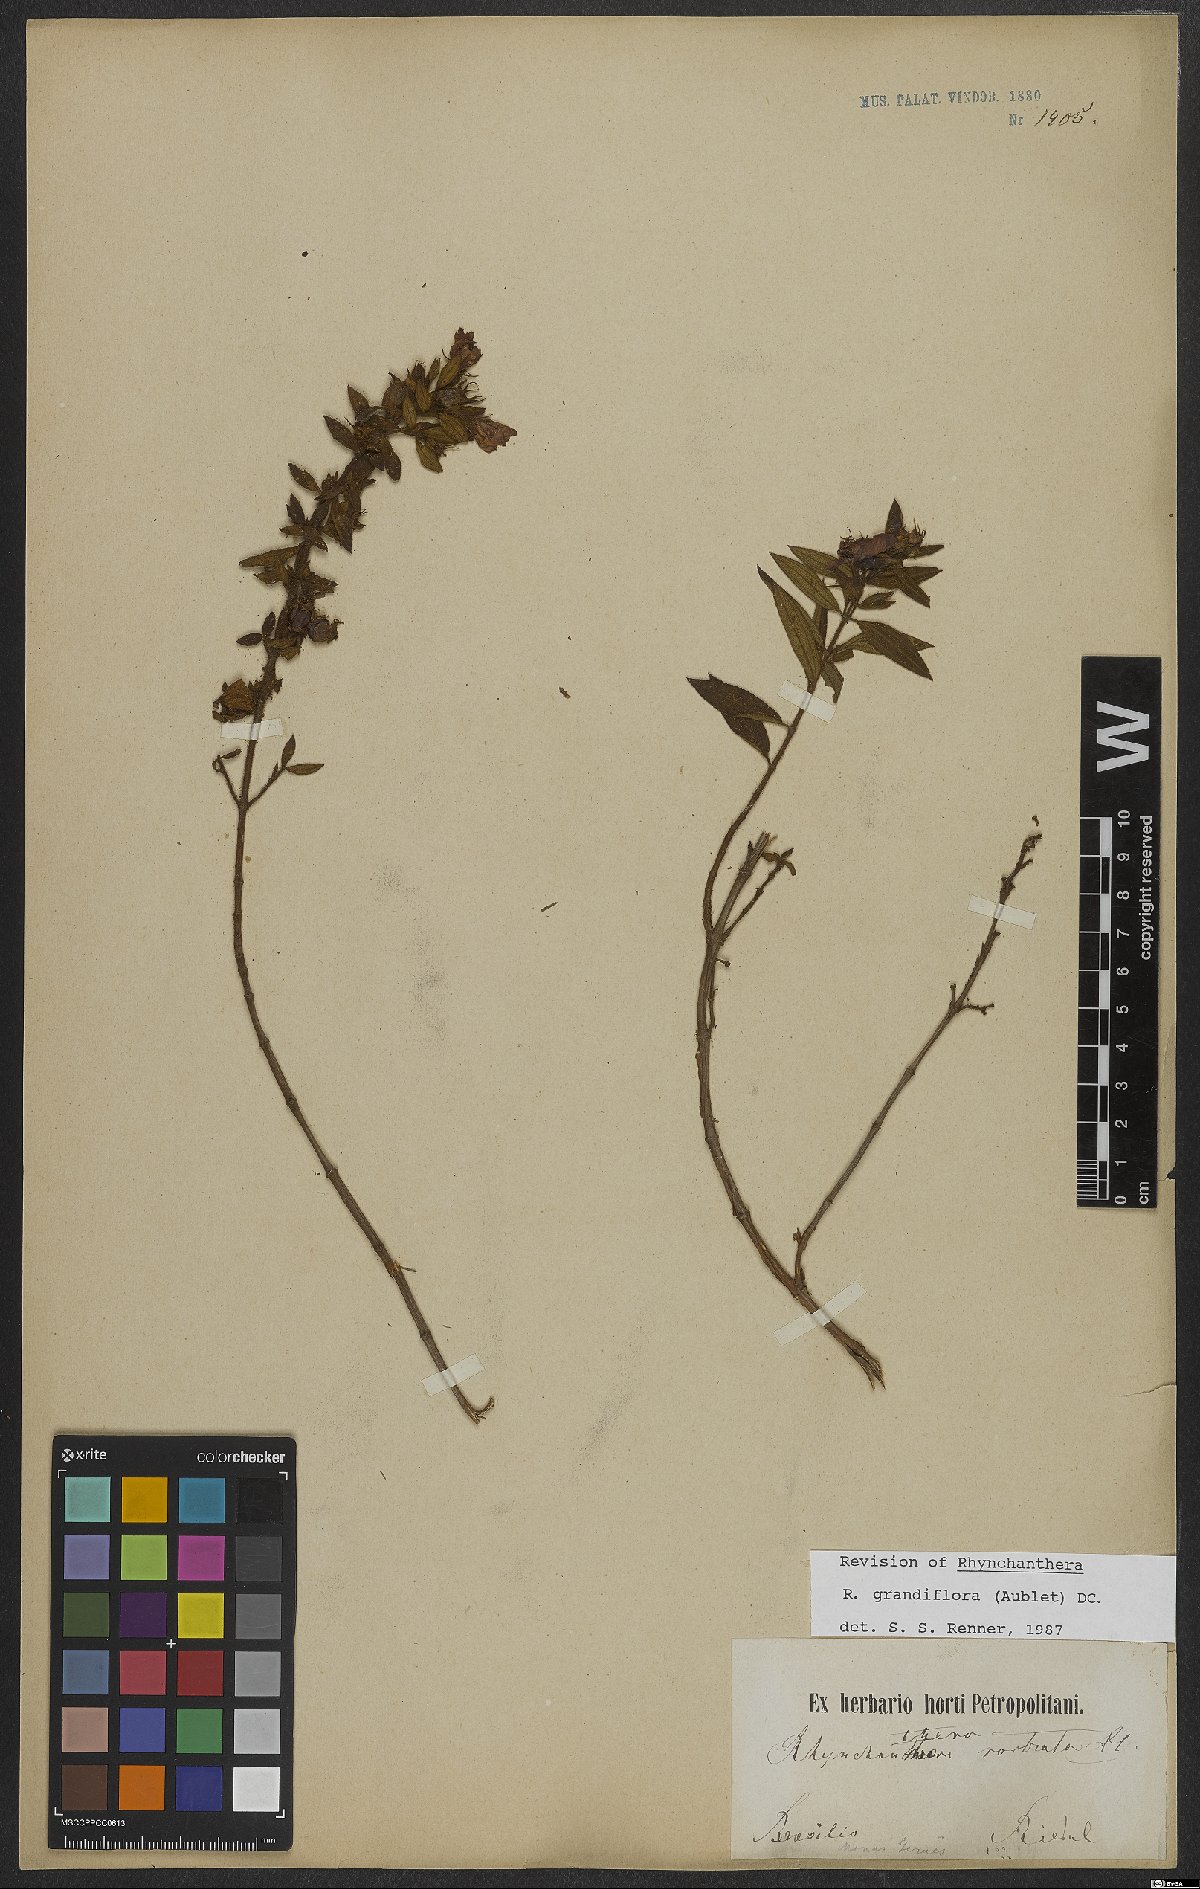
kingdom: Plantae
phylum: Tracheophyta
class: Magnoliopsida
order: Myrtales
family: Melastomataceae
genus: Rhynchanthera
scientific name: Rhynchanthera grandiflora
